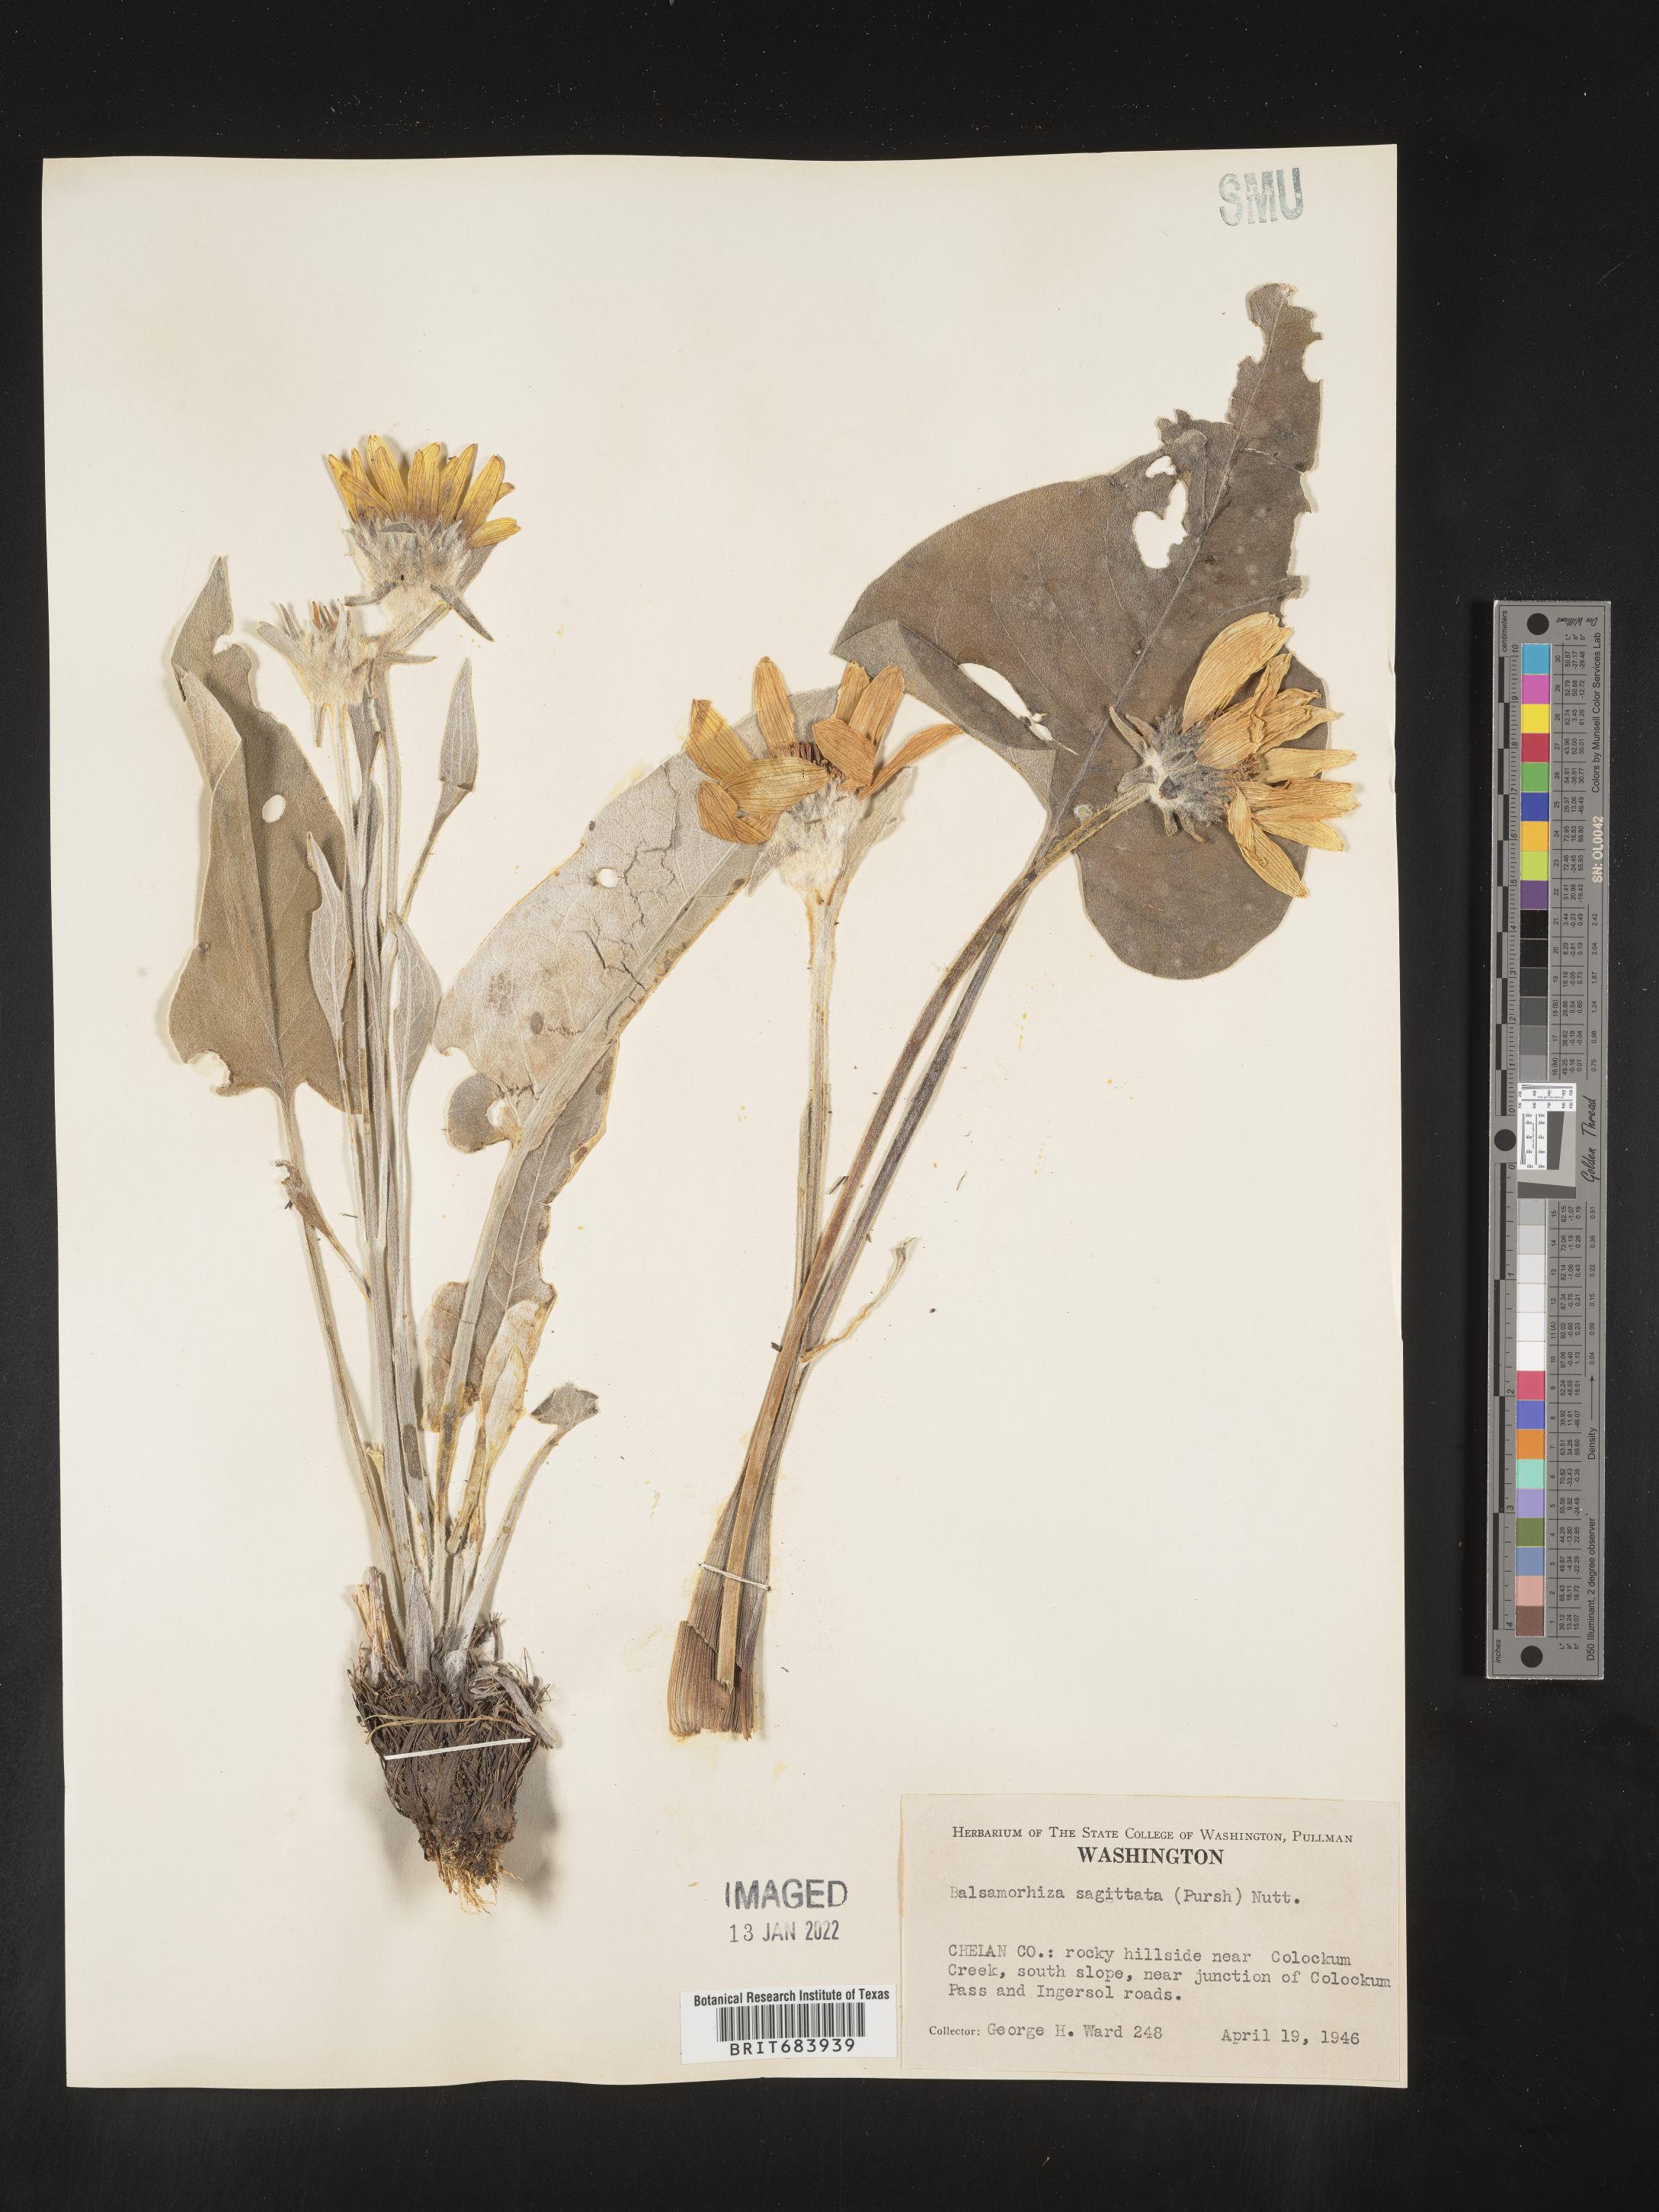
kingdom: Plantae
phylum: Tracheophyta
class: Magnoliopsida
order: Asterales
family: Asteraceae
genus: Wyethia
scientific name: Wyethia sagittata
